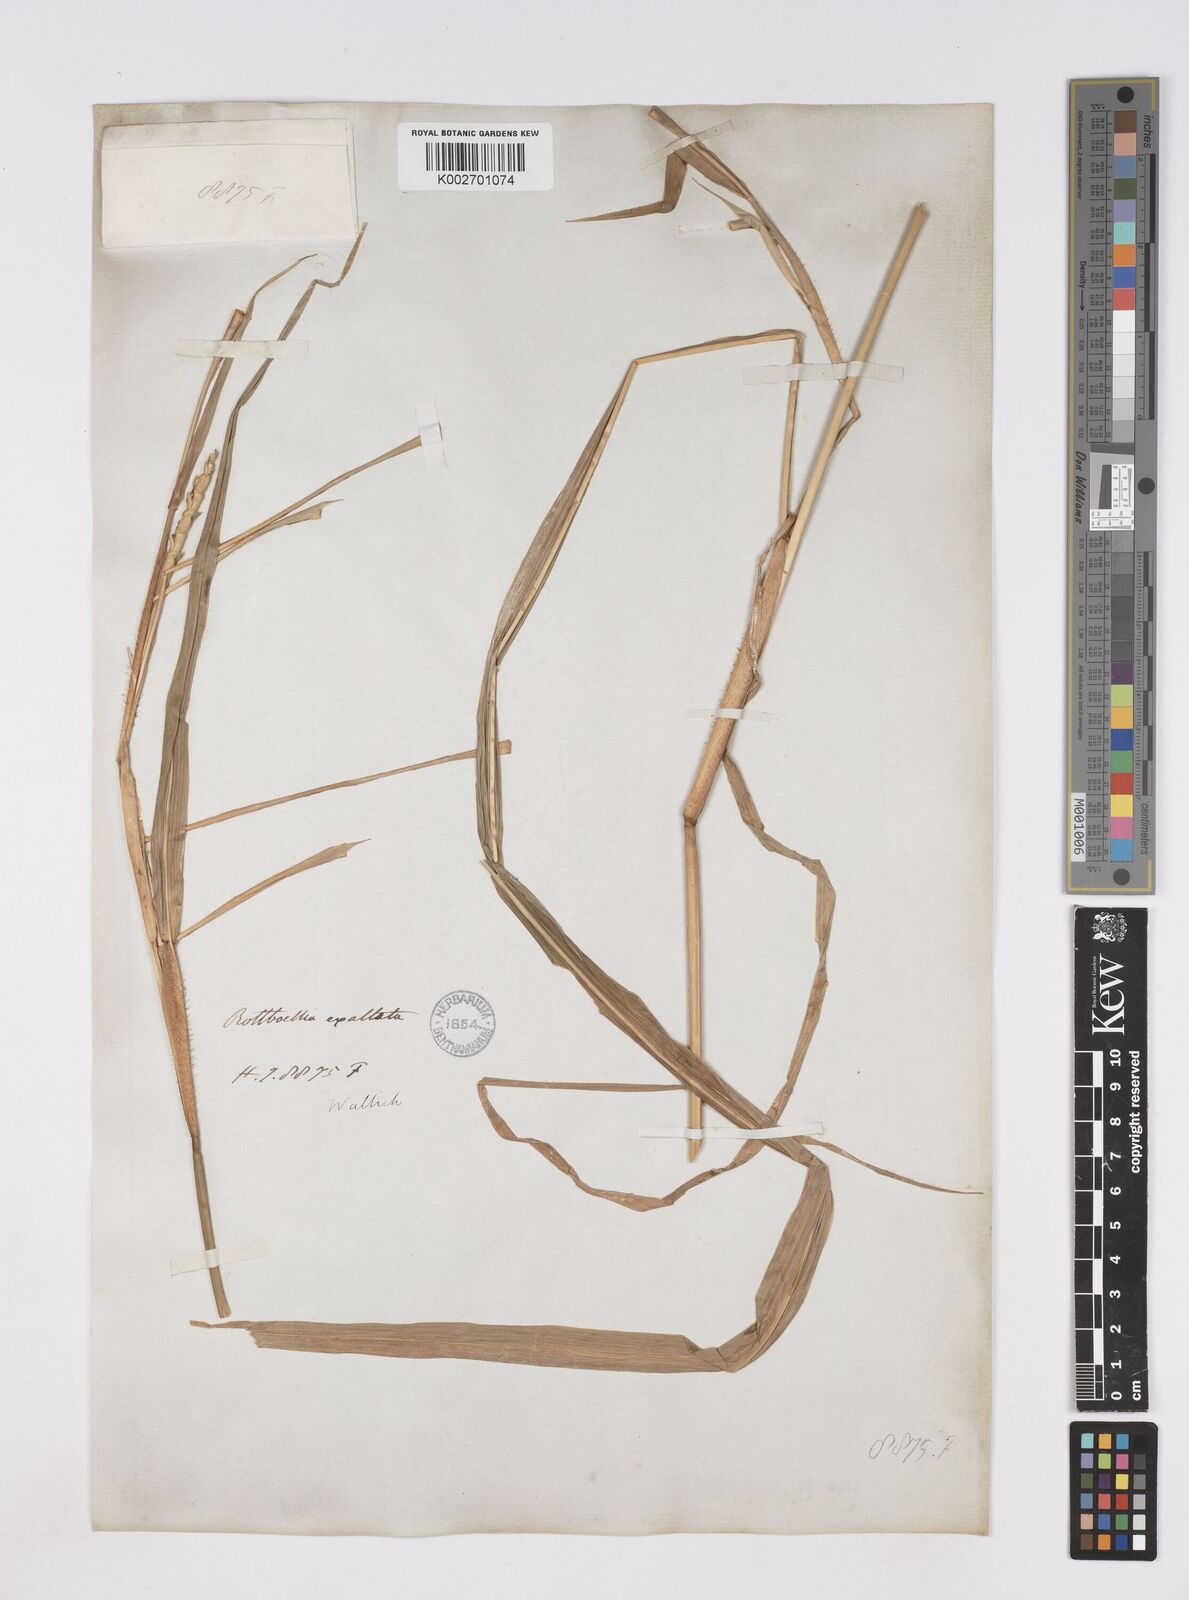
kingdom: Plantae
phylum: Tracheophyta
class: Liliopsida
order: Poales
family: Poaceae
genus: Ophiuros
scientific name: Ophiuros exaltatus
